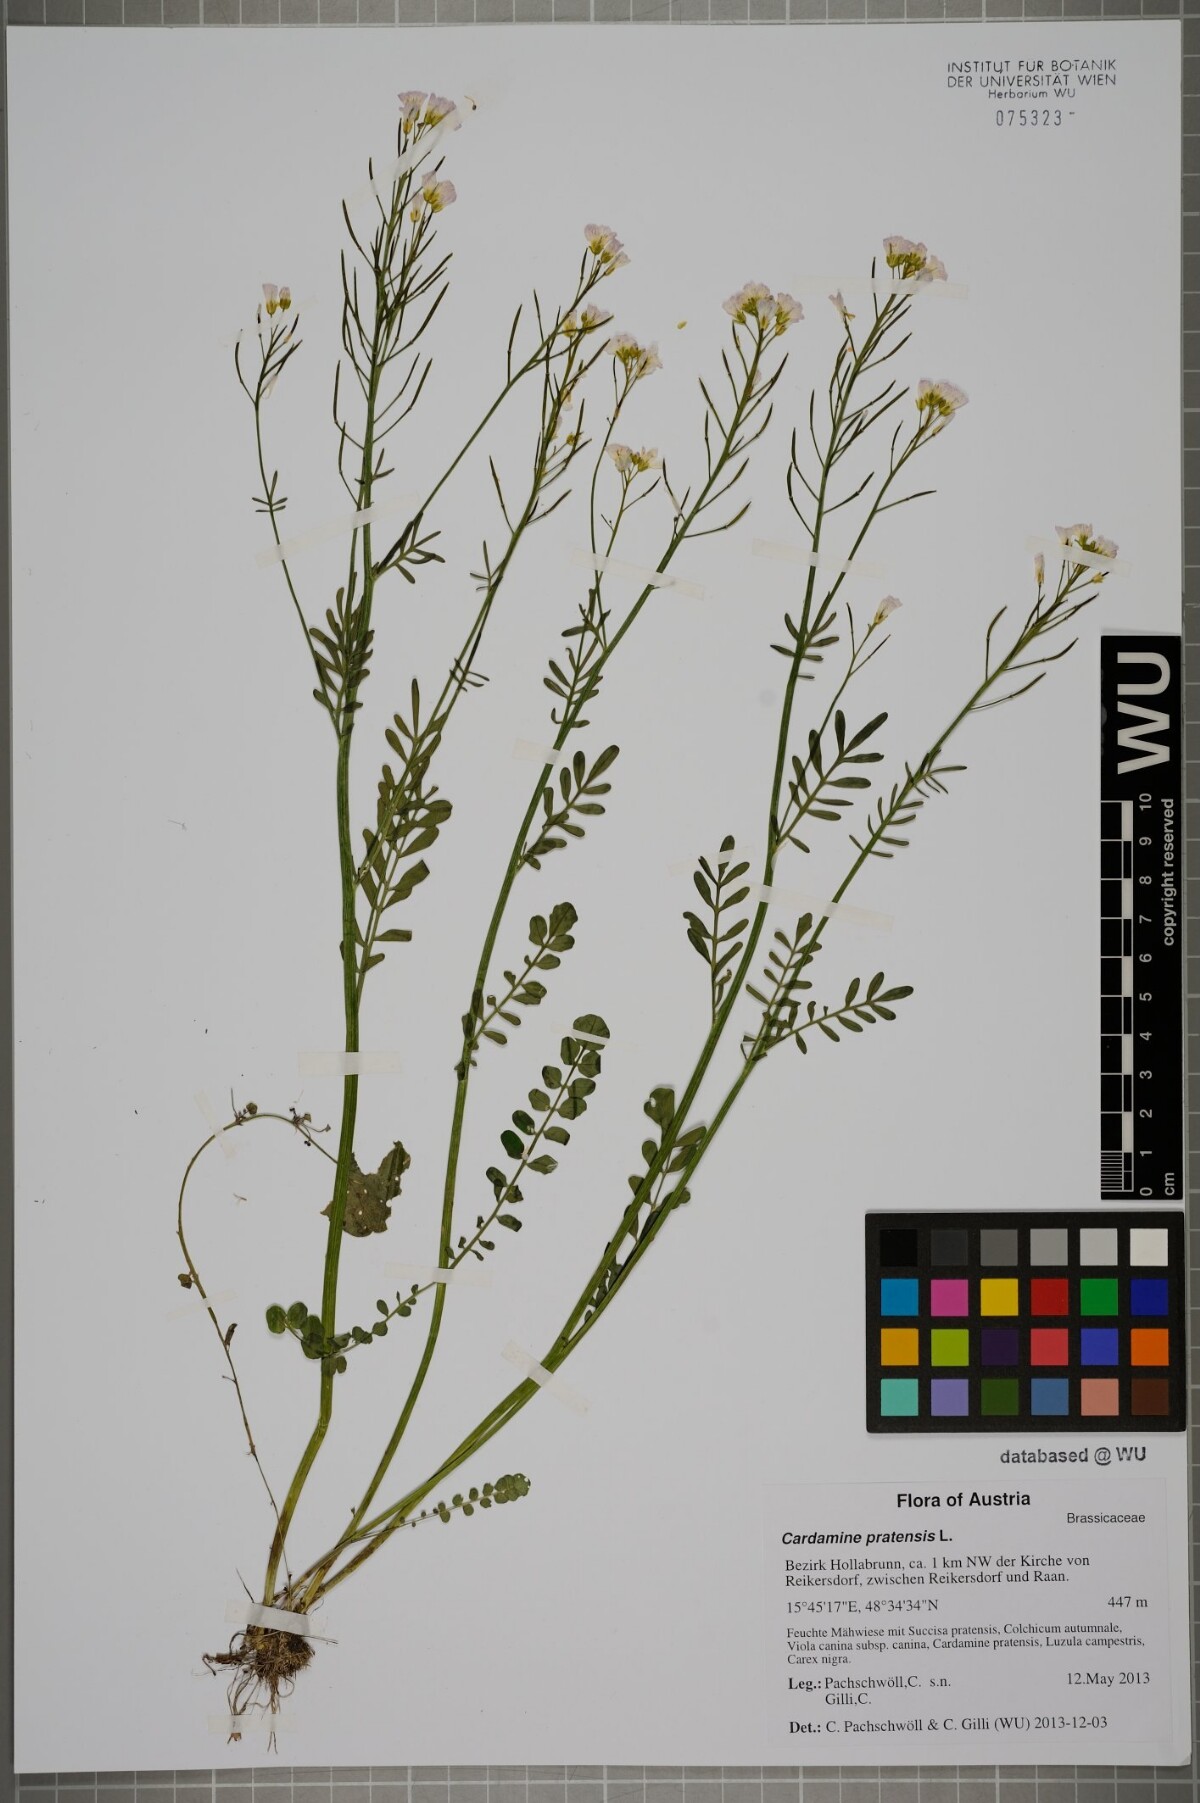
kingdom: Plantae
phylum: Tracheophyta
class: Magnoliopsida
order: Brassicales
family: Brassicaceae
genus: Cardamine
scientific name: Cardamine pratensis
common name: Cuckoo flower
